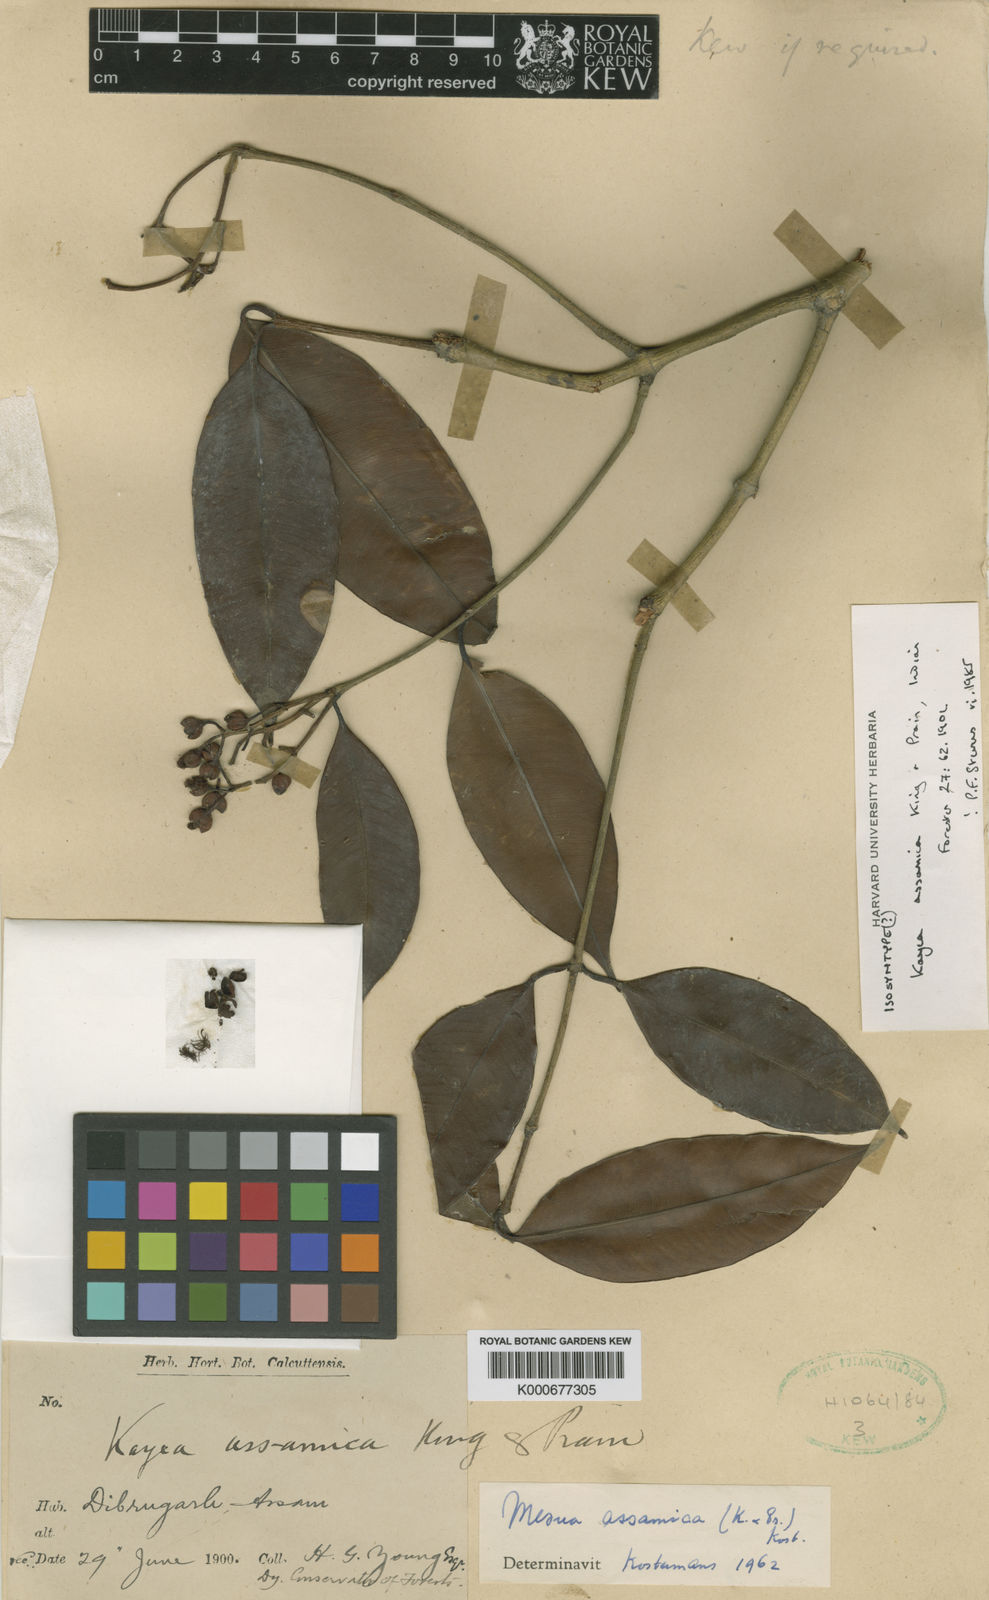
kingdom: Plantae
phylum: Tracheophyta
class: Magnoliopsida
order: Malpighiales
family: Calophyllaceae
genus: Kayea
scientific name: Kayea assamica
